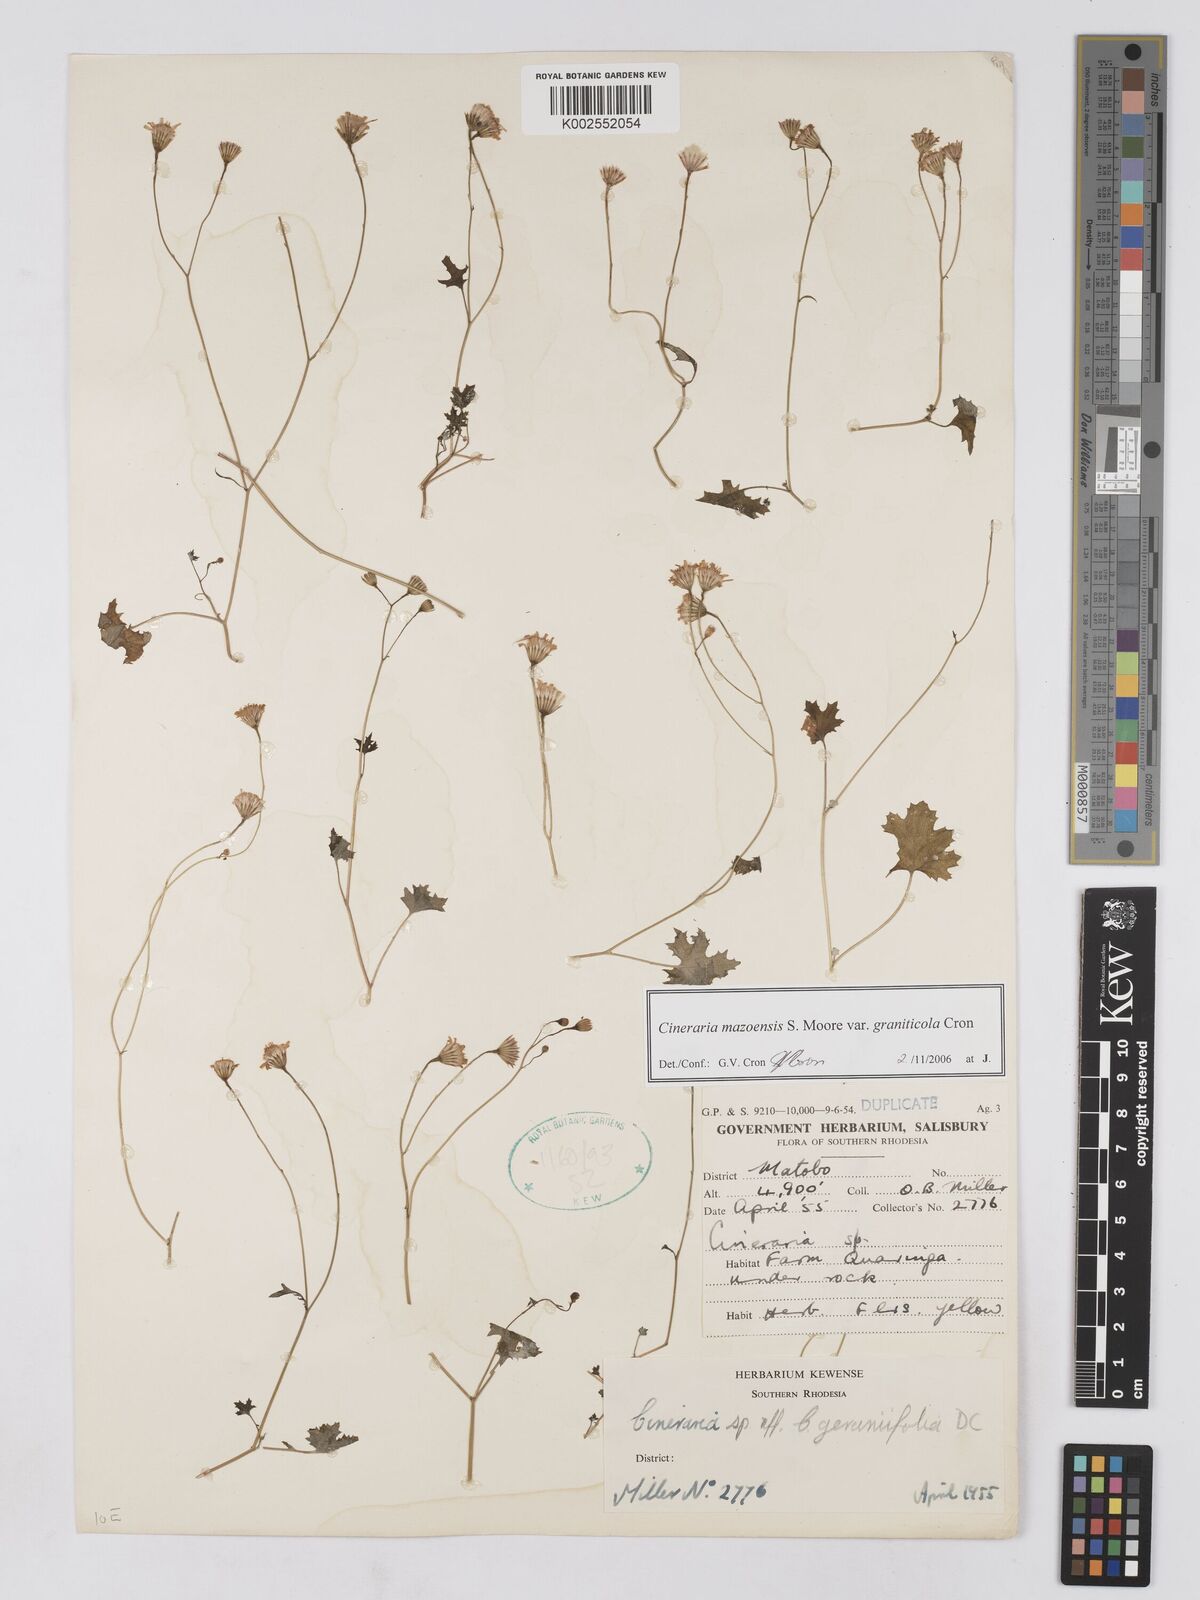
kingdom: Plantae
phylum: Tracheophyta
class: Magnoliopsida
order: Asterales
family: Asteraceae
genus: Cineraria
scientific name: Cineraria mazoensis
